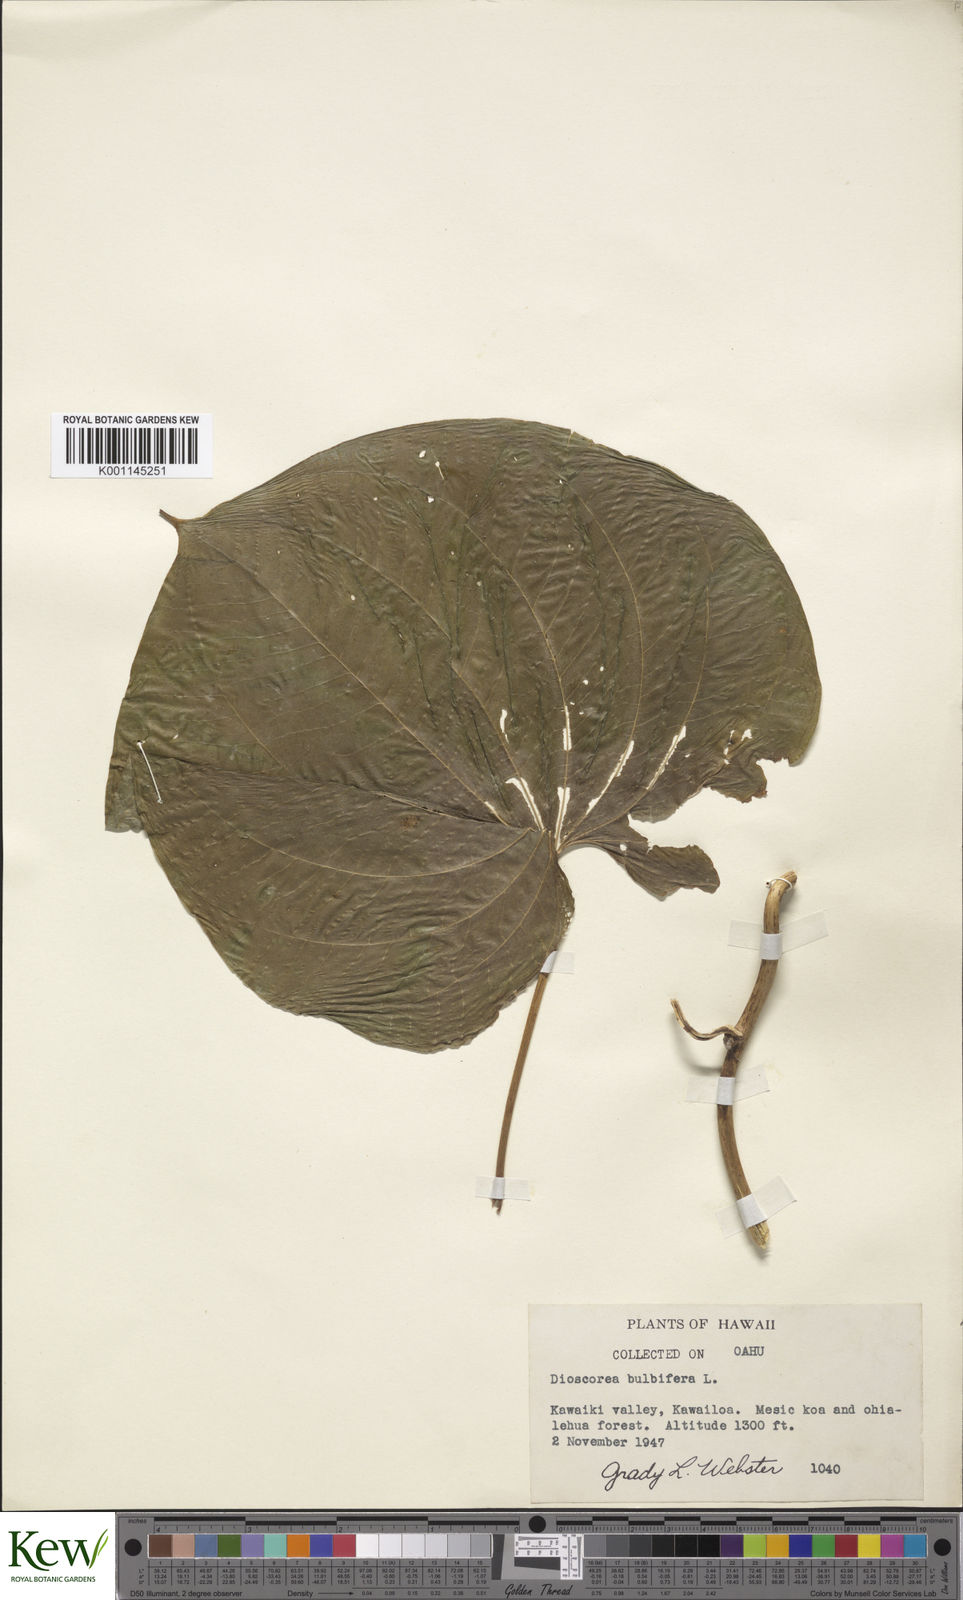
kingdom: Plantae
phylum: Tracheophyta
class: Liliopsida
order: Dioscoreales
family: Dioscoreaceae
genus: Dioscorea
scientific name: Dioscorea bulbifera
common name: Air yam
